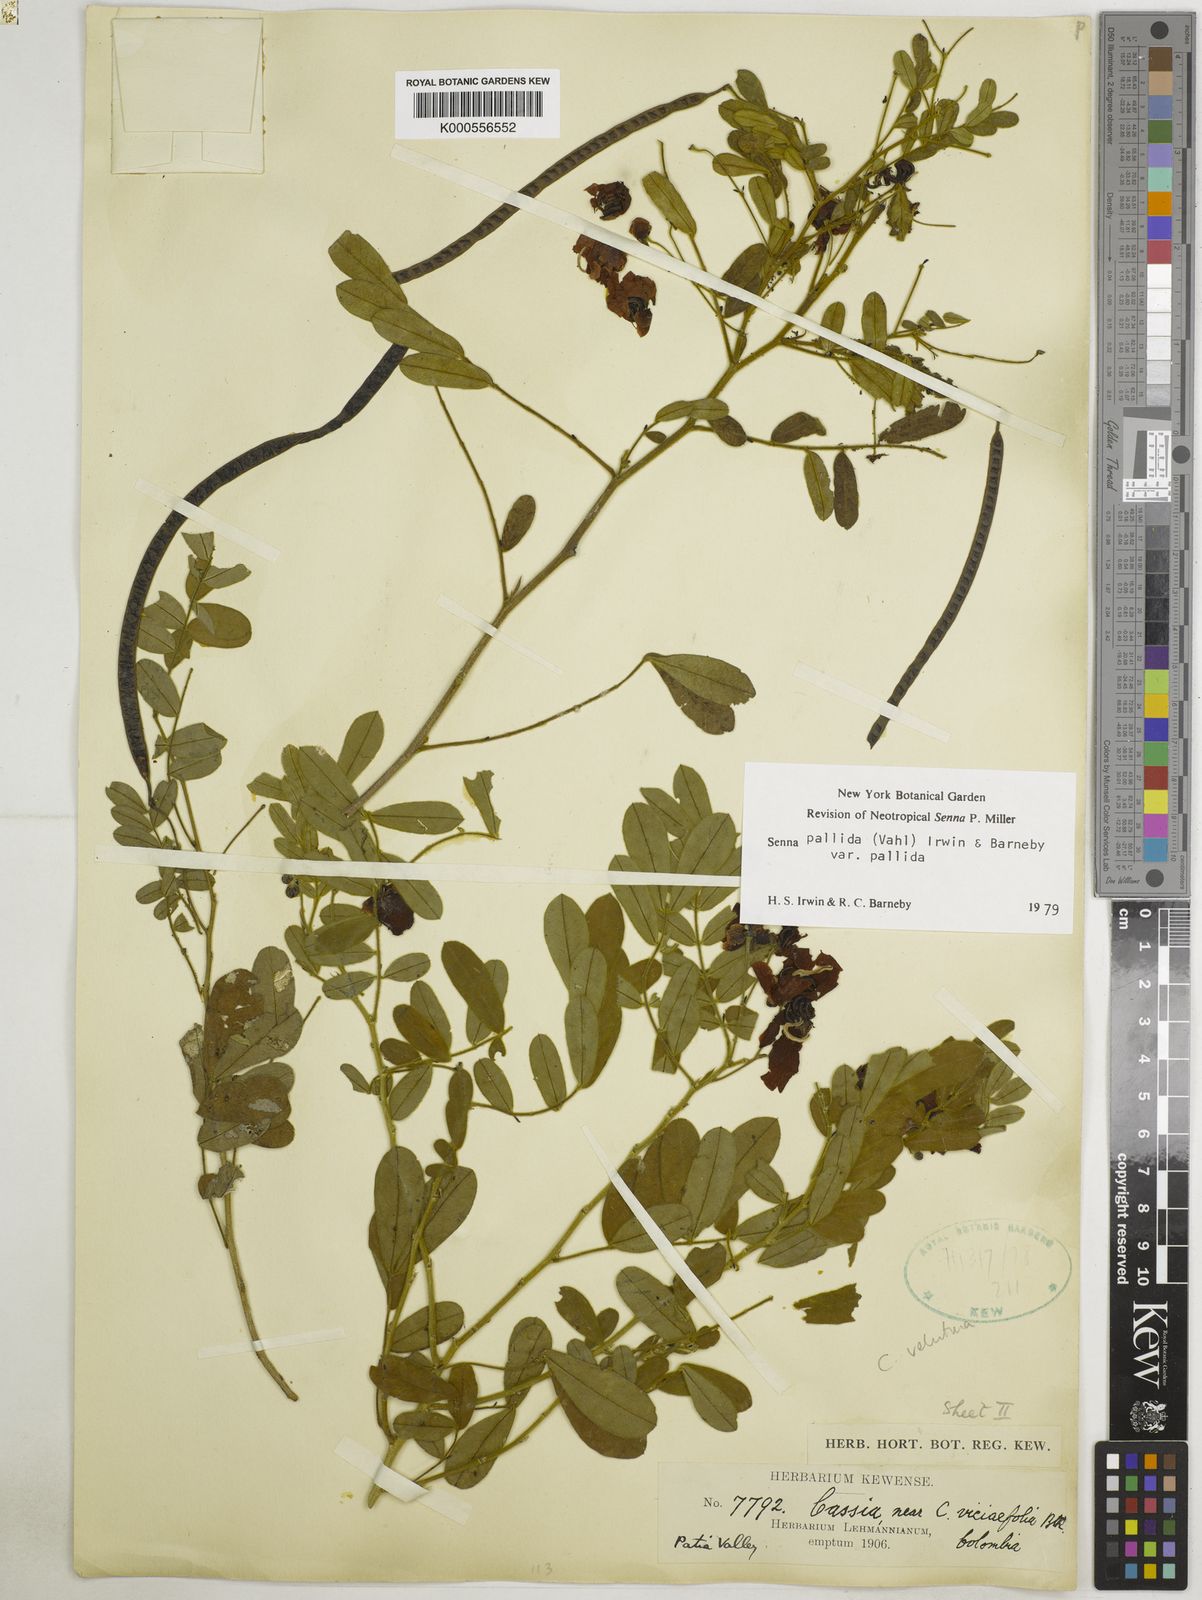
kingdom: Plantae
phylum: Tracheophyta
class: Magnoliopsida
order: Fabales
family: Fabaceae
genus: Senna
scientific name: Senna pallida
